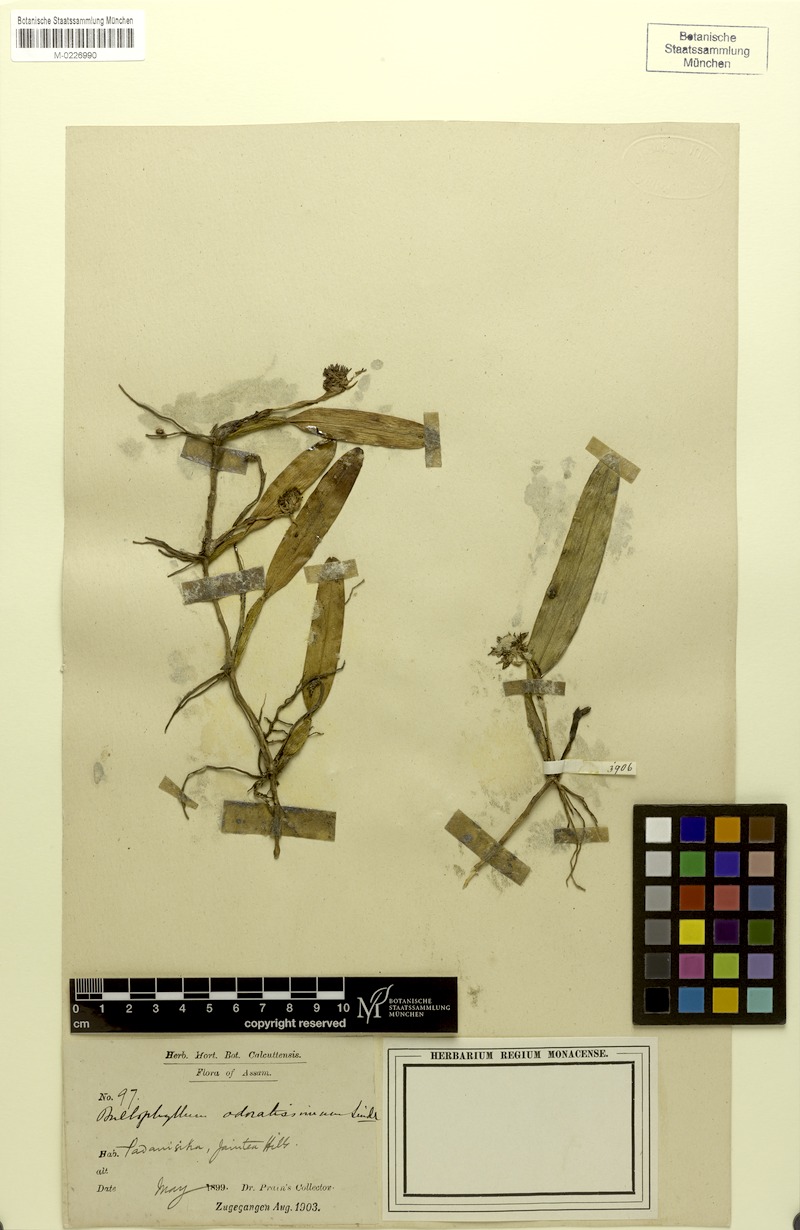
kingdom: Plantae
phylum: Tracheophyta
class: Liliopsida
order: Asparagales
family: Orchidaceae
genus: Bulbophyllum
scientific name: Bulbophyllum odoratissimum
